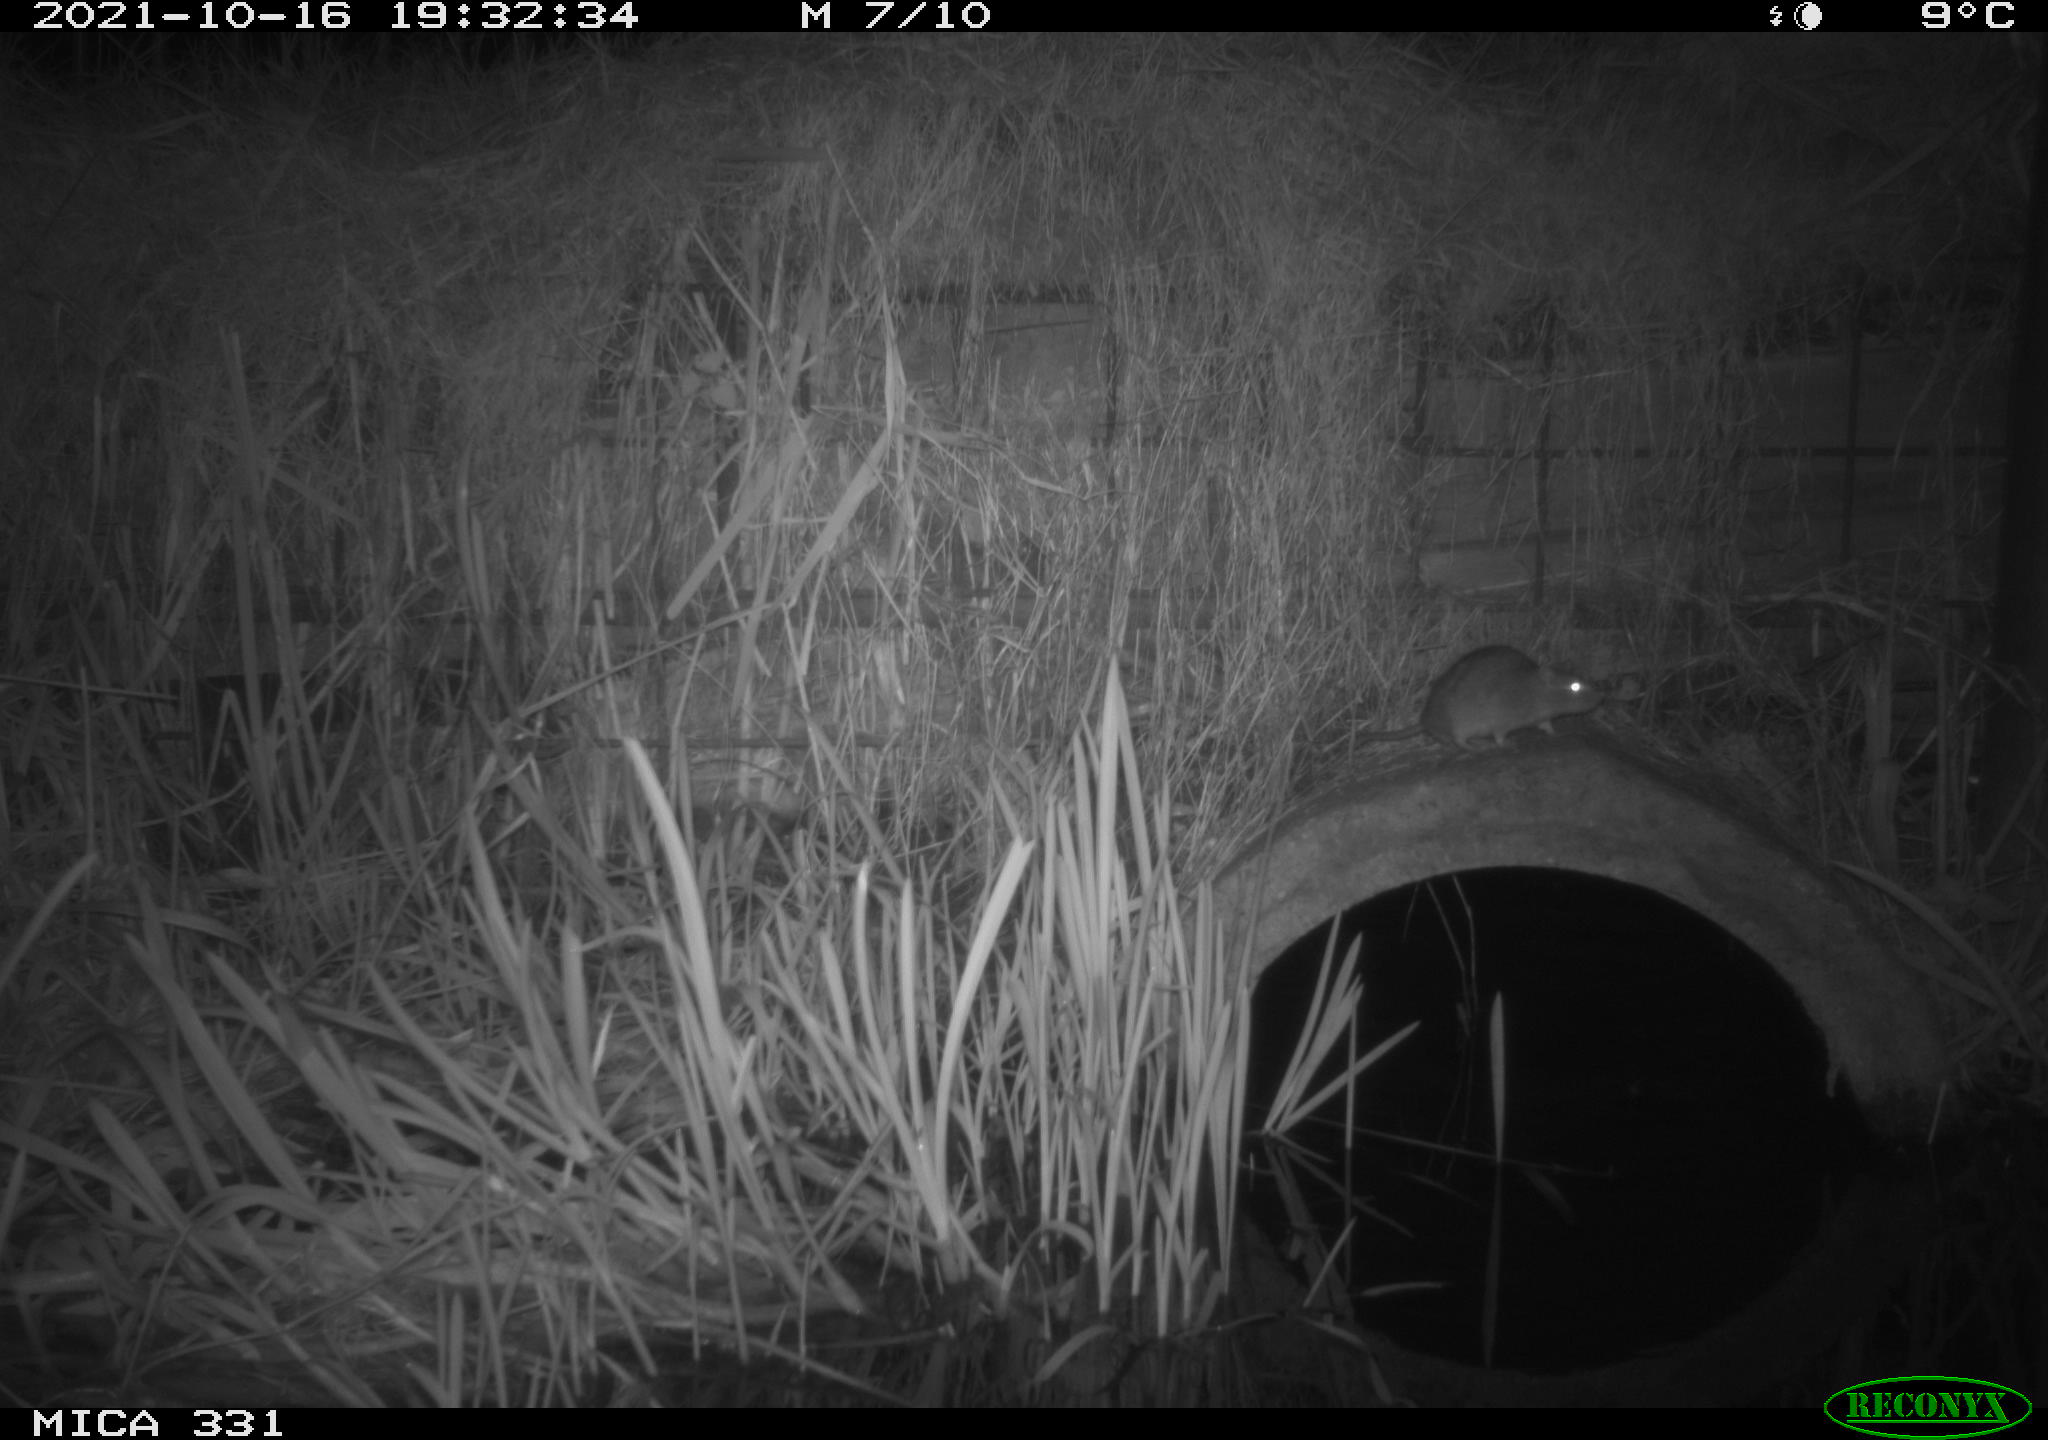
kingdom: Animalia
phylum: Chordata
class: Mammalia
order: Rodentia
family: Muridae
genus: Rattus
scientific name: Rattus norvegicus
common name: Brown rat
